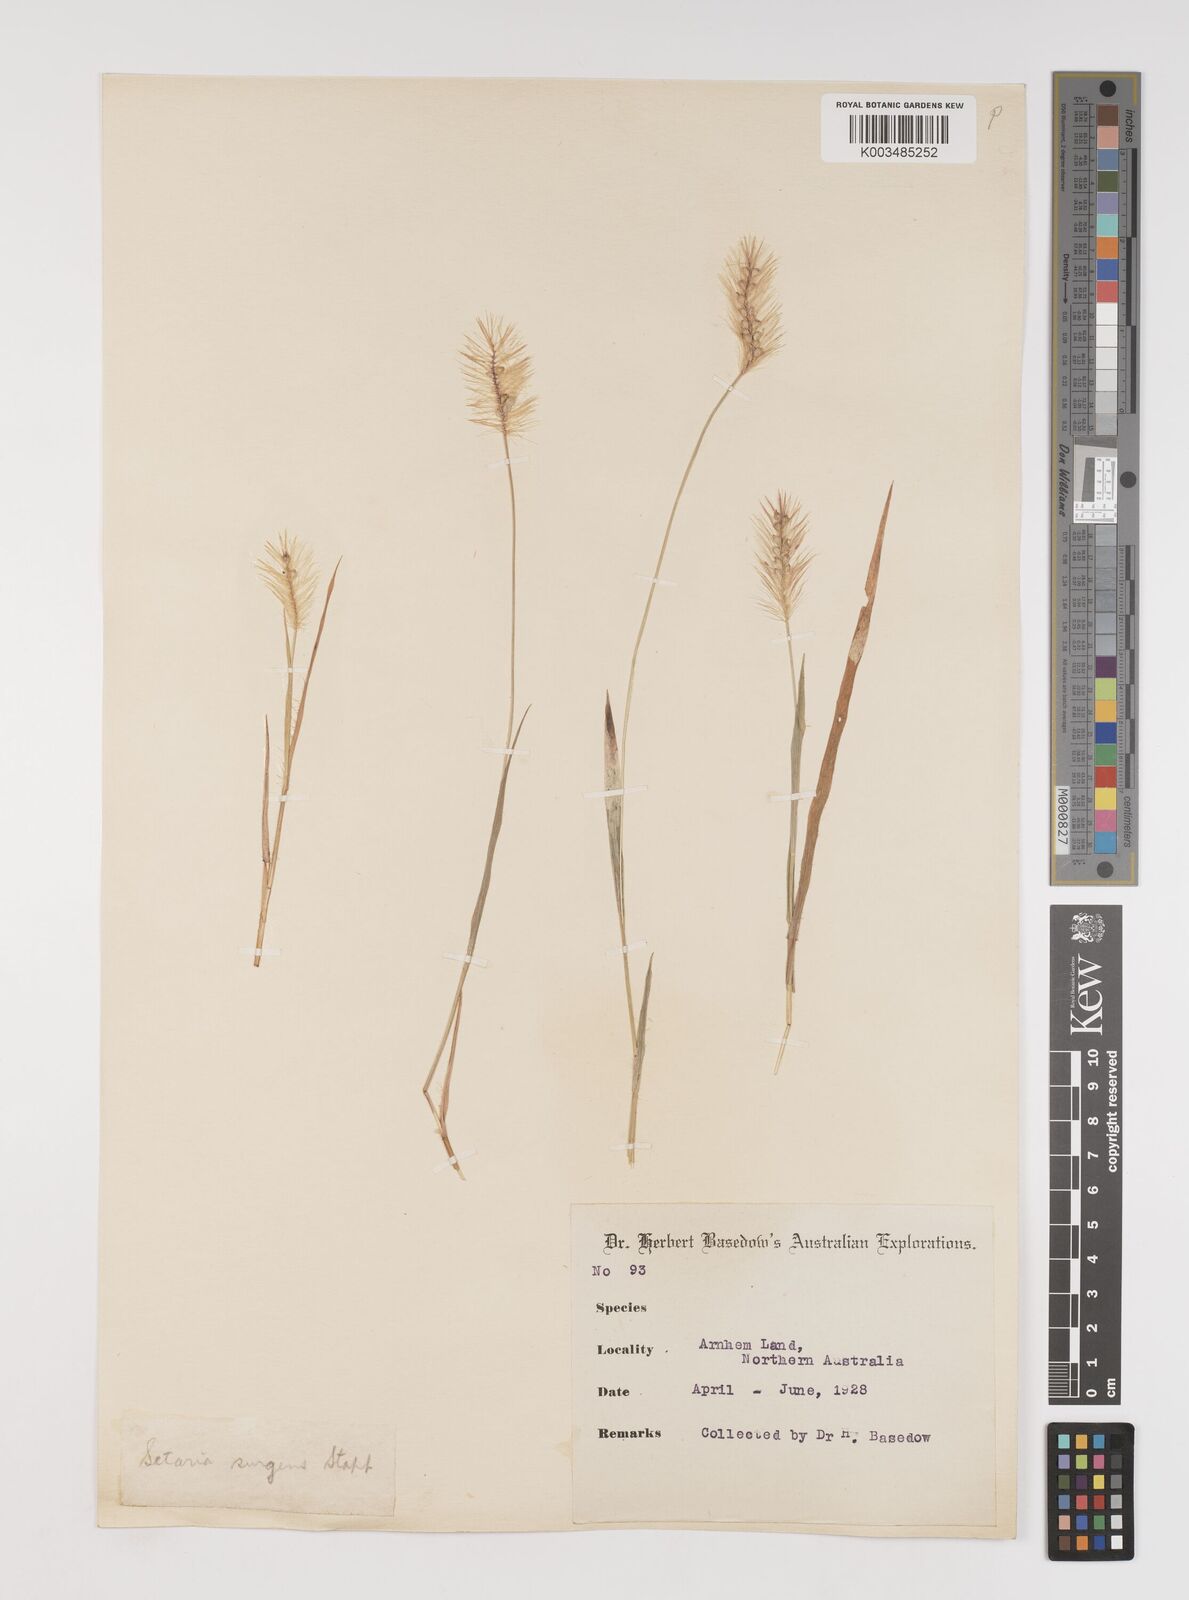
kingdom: Plantae
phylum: Tracheophyta
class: Liliopsida
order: Poales
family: Poaceae
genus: Setaria
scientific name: Setaria apiculata
